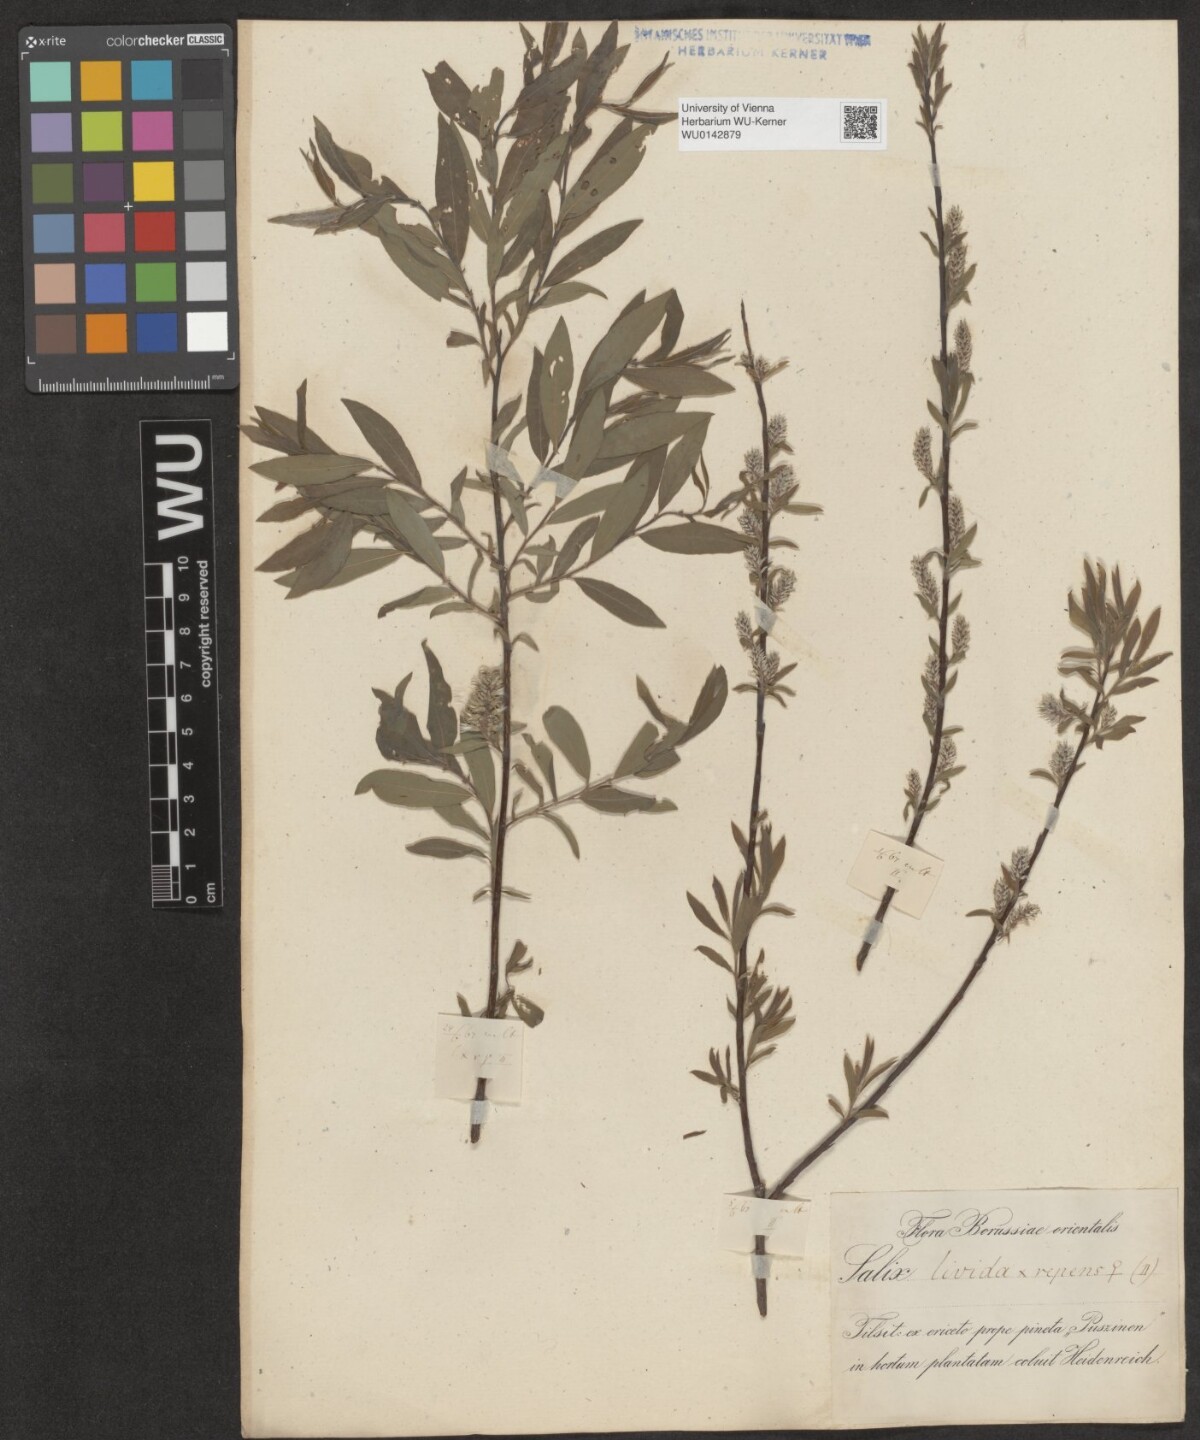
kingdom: Plantae
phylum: Tracheophyta
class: Magnoliopsida
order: Malpighiales
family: Salicaceae
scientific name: Salicaceae
